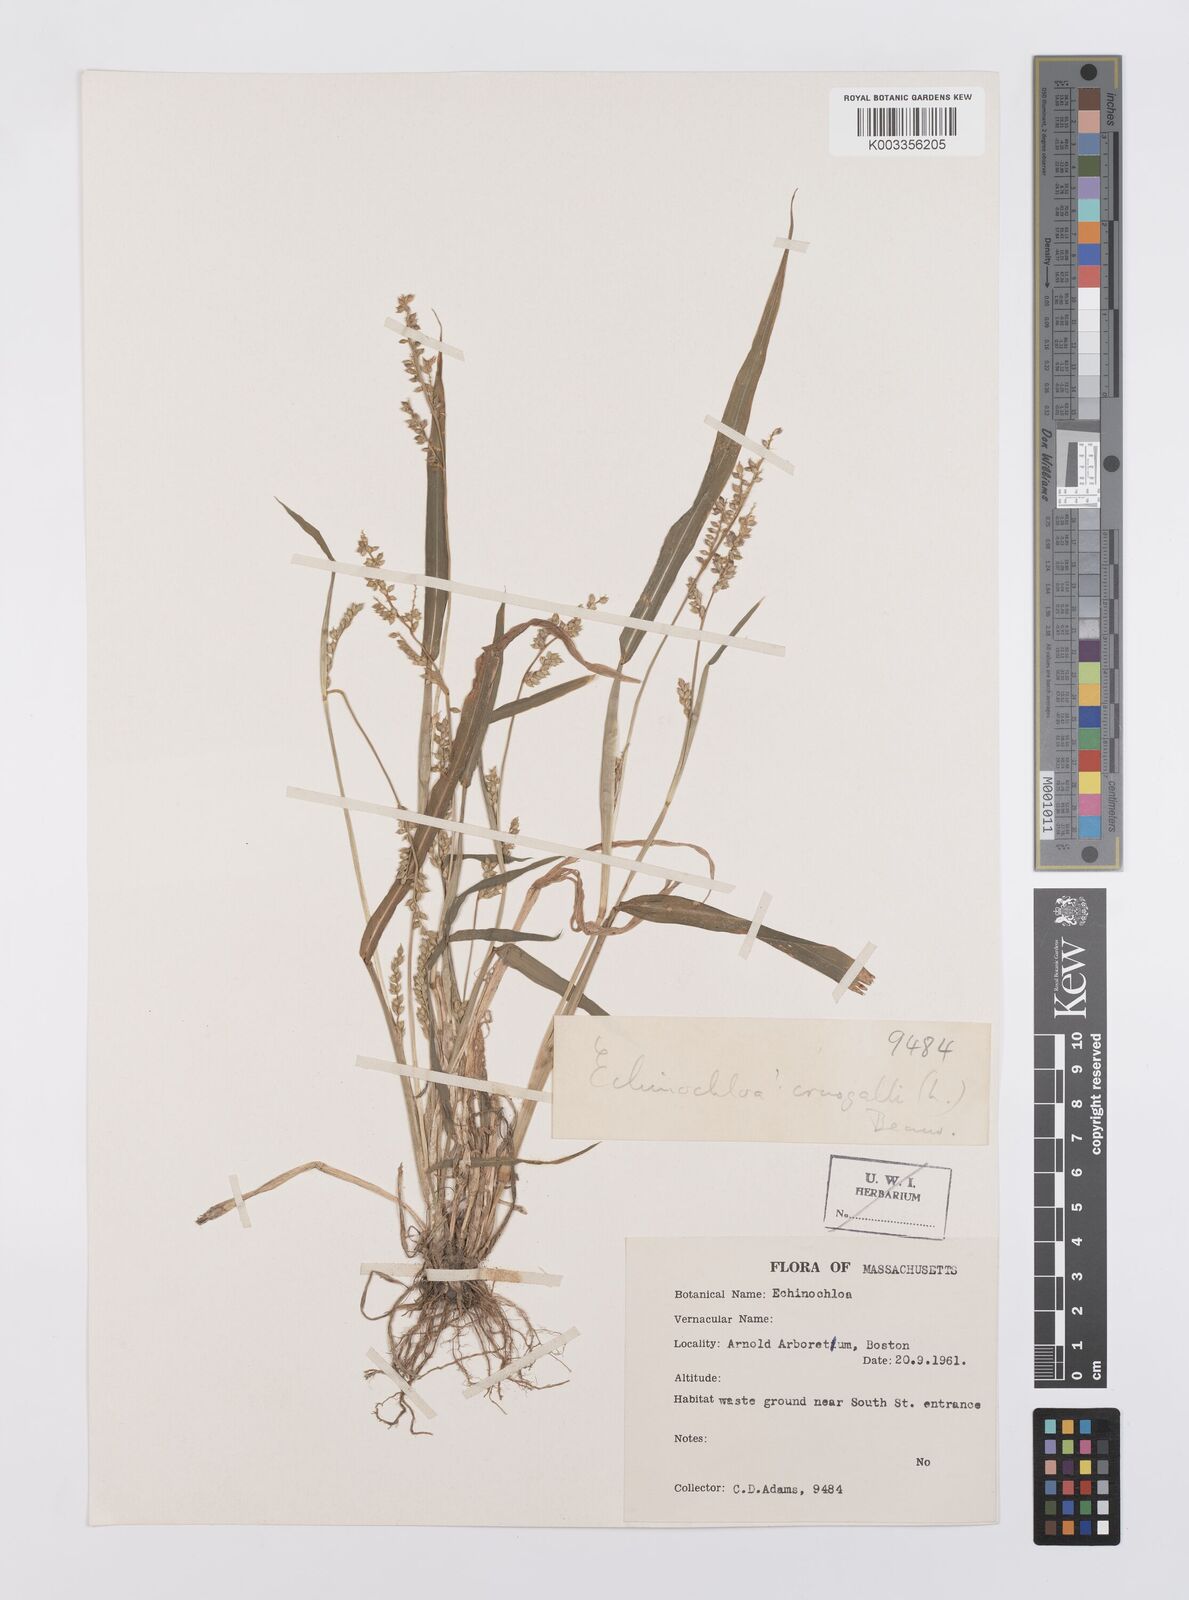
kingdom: Plantae
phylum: Tracheophyta
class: Liliopsida
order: Poales
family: Poaceae
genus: Echinochloa
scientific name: Echinochloa crus-galli
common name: Cockspur
